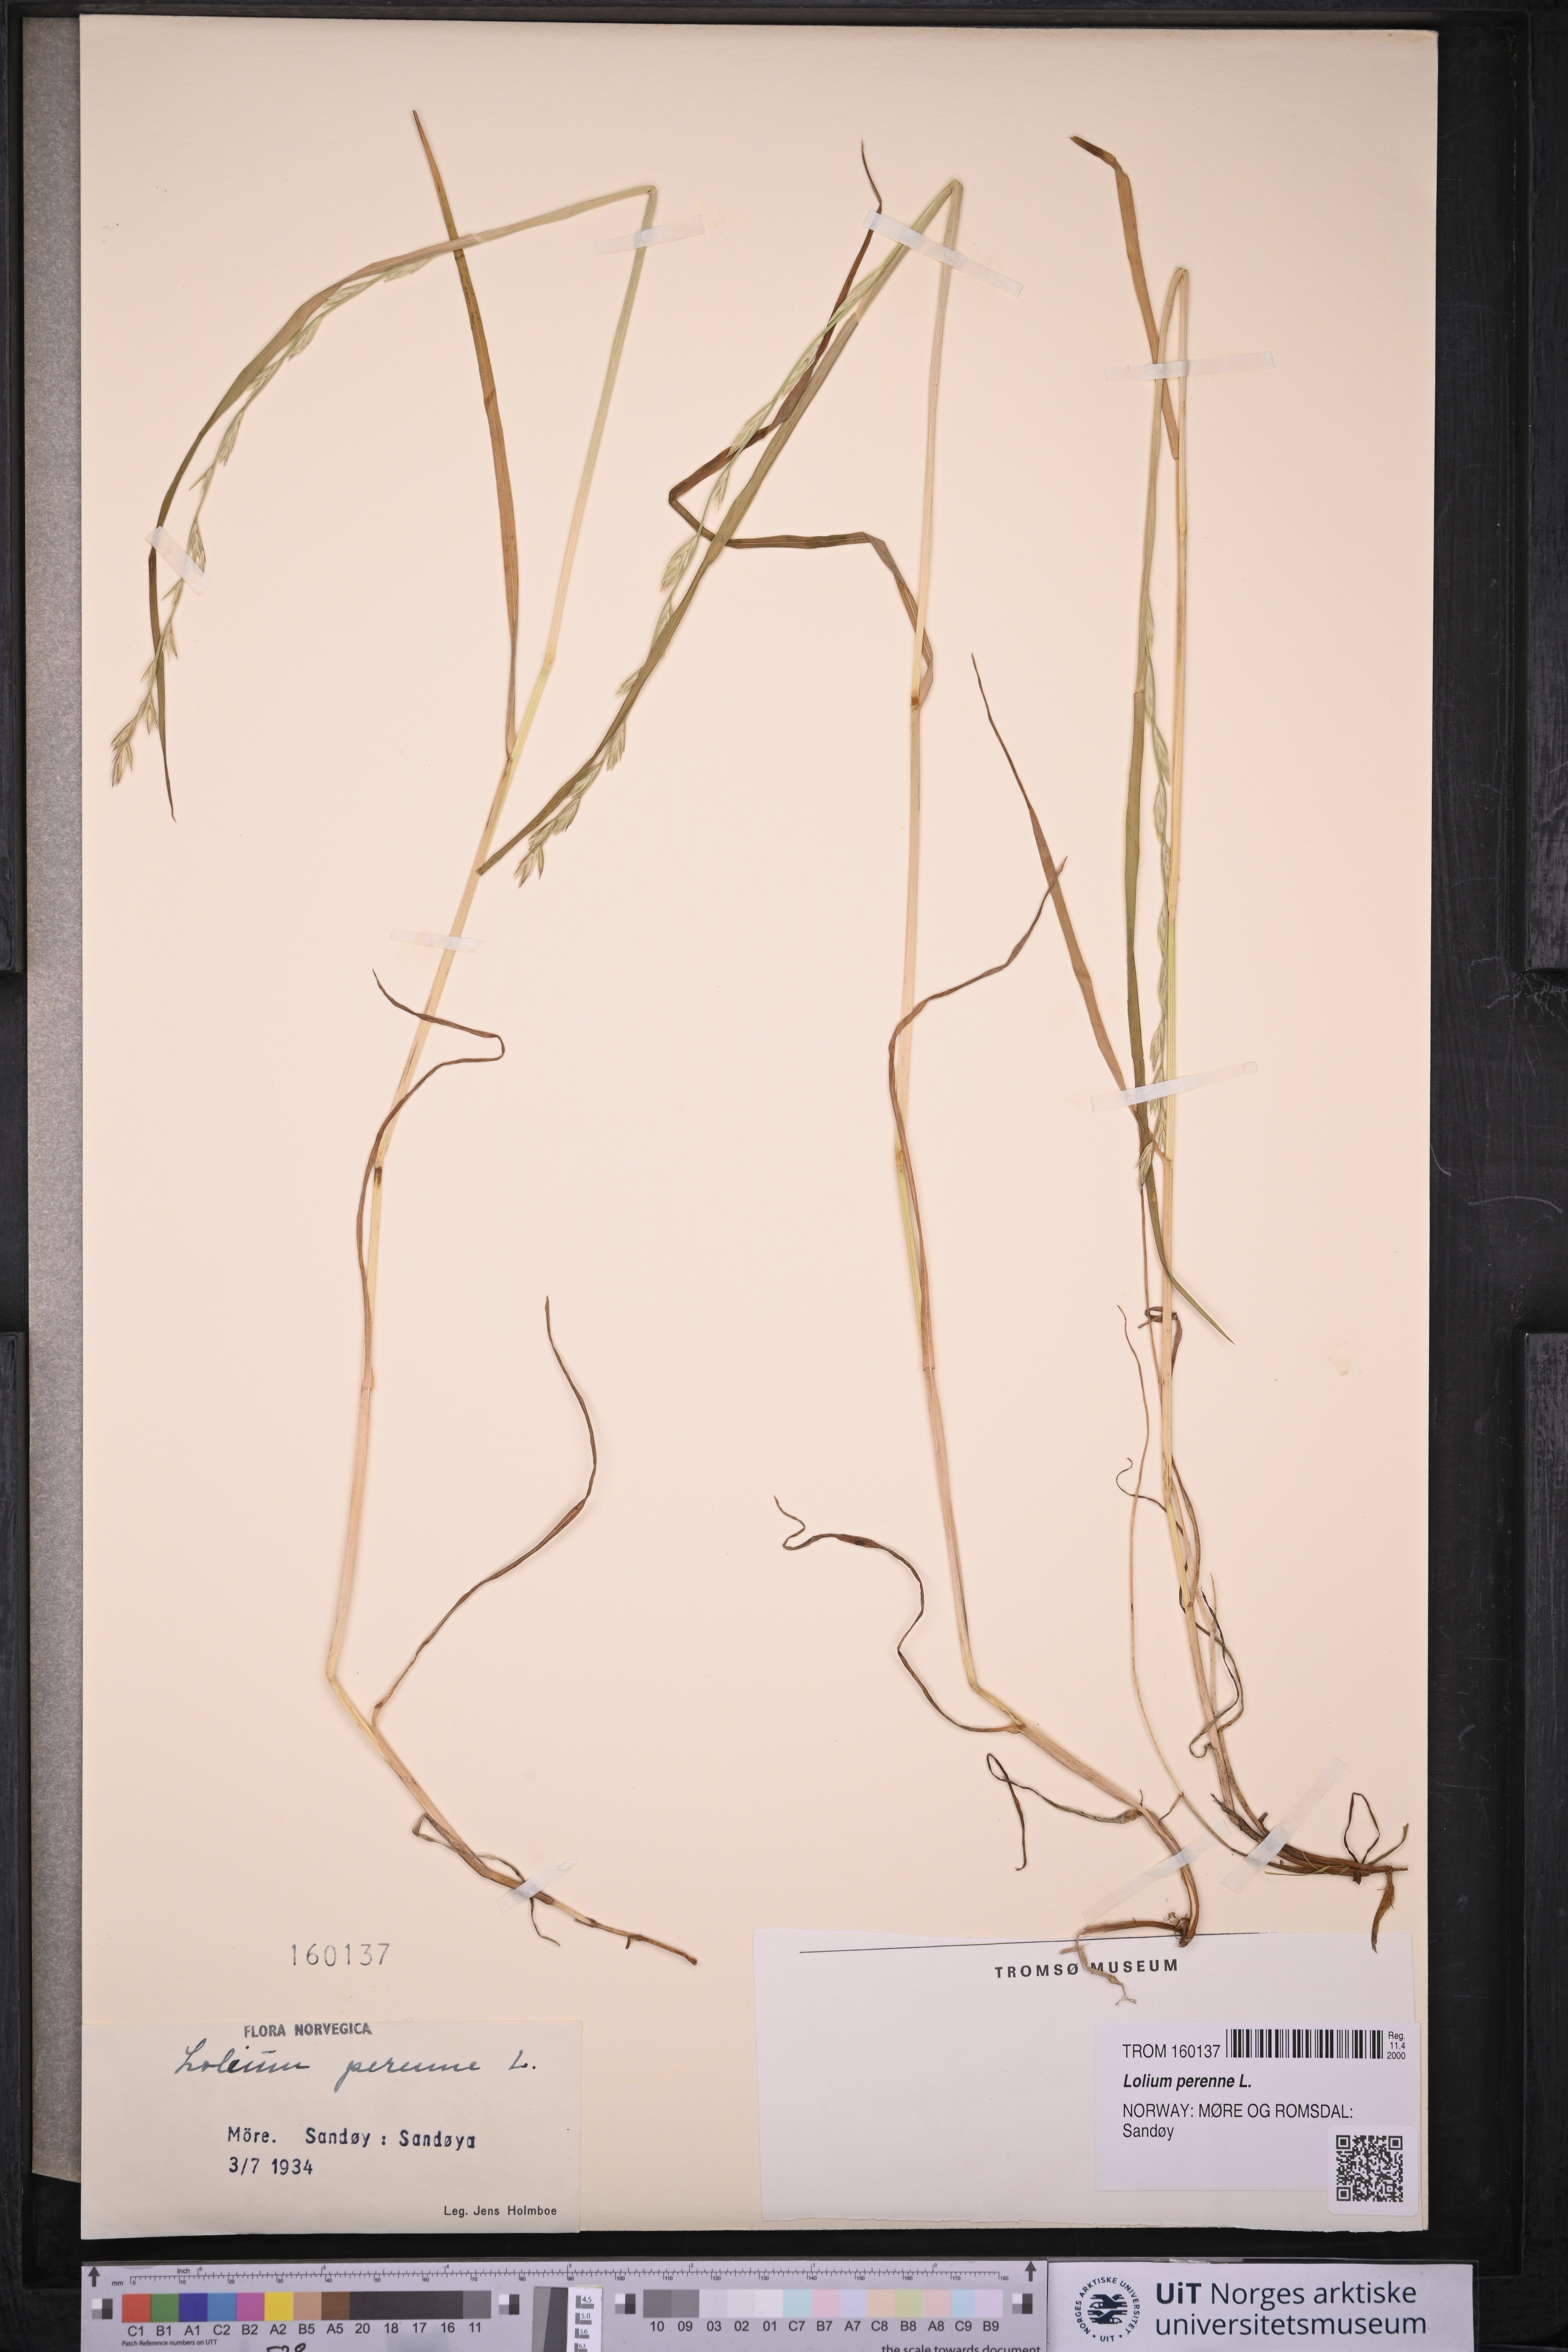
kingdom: Plantae
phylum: Tracheophyta
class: Liliopsida
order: Poales
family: Poaceae
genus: Lolium
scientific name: Lolium perenne
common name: Perennial ryegrass
